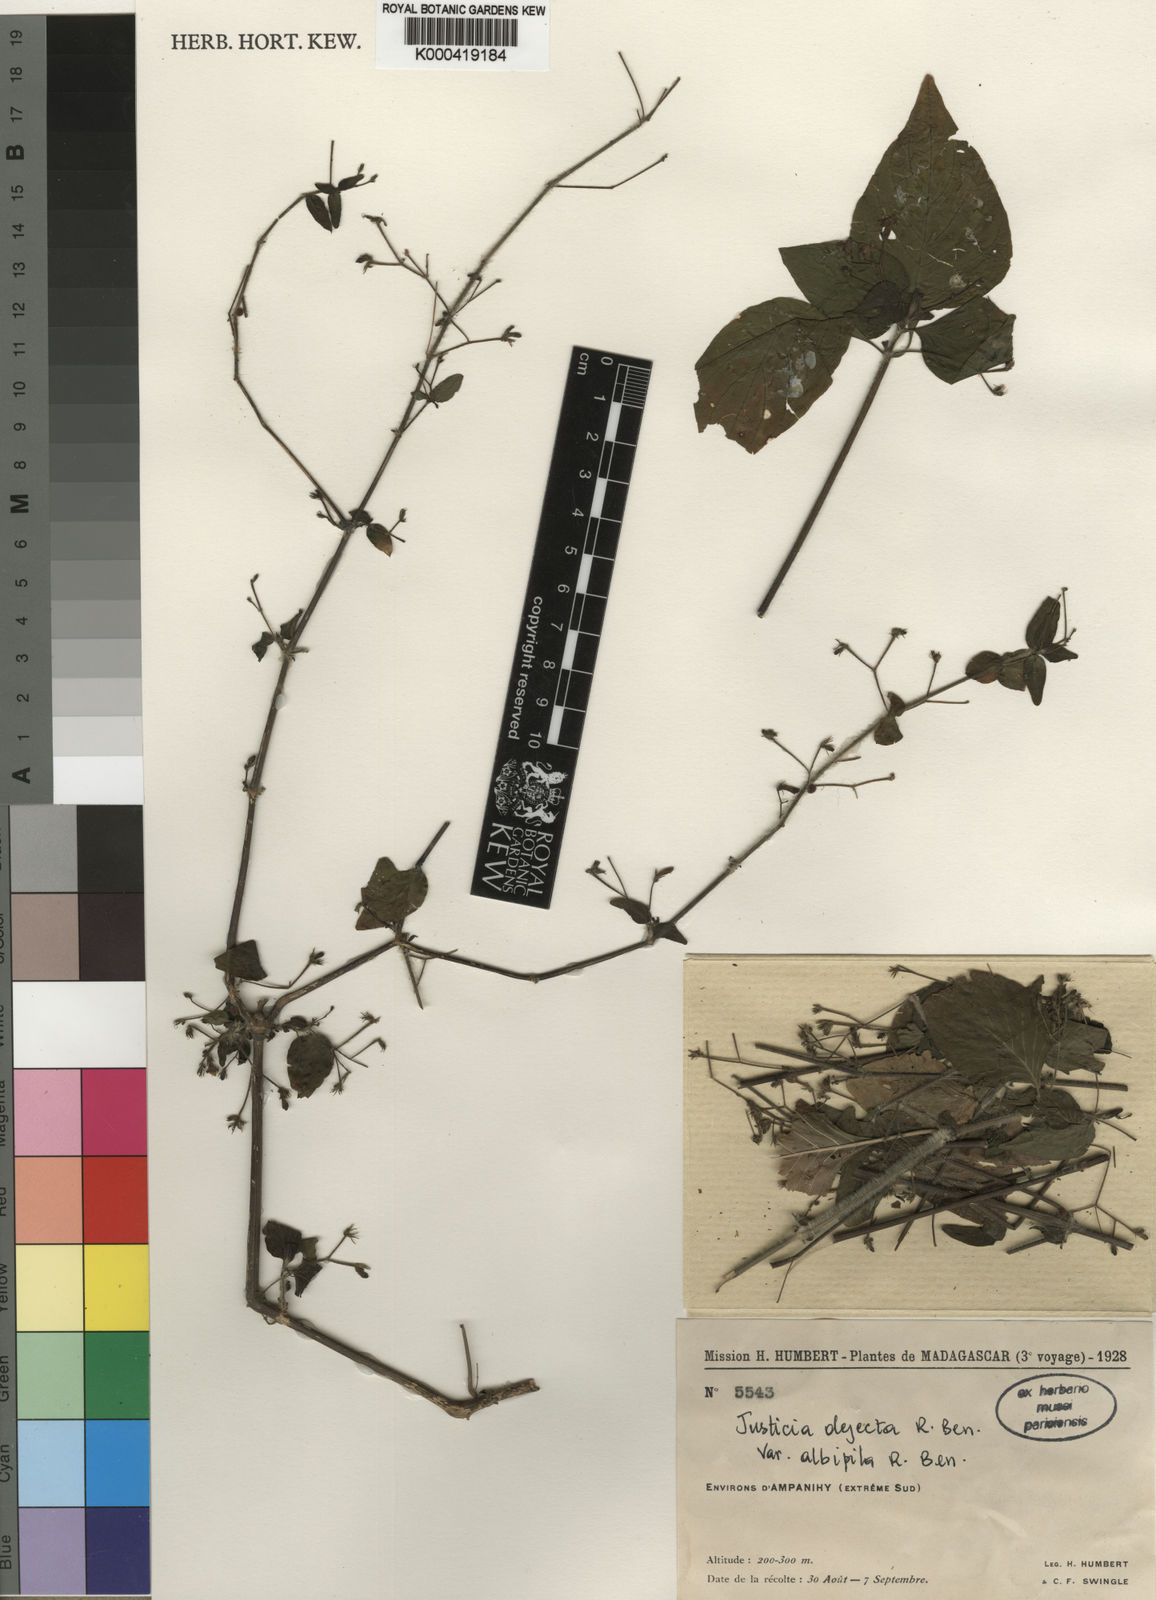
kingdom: Plantae
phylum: Tracheophyta
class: Magnoliopsida
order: Lamiales
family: Acanthaceae
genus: Justicia
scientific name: Justicia dejecta
